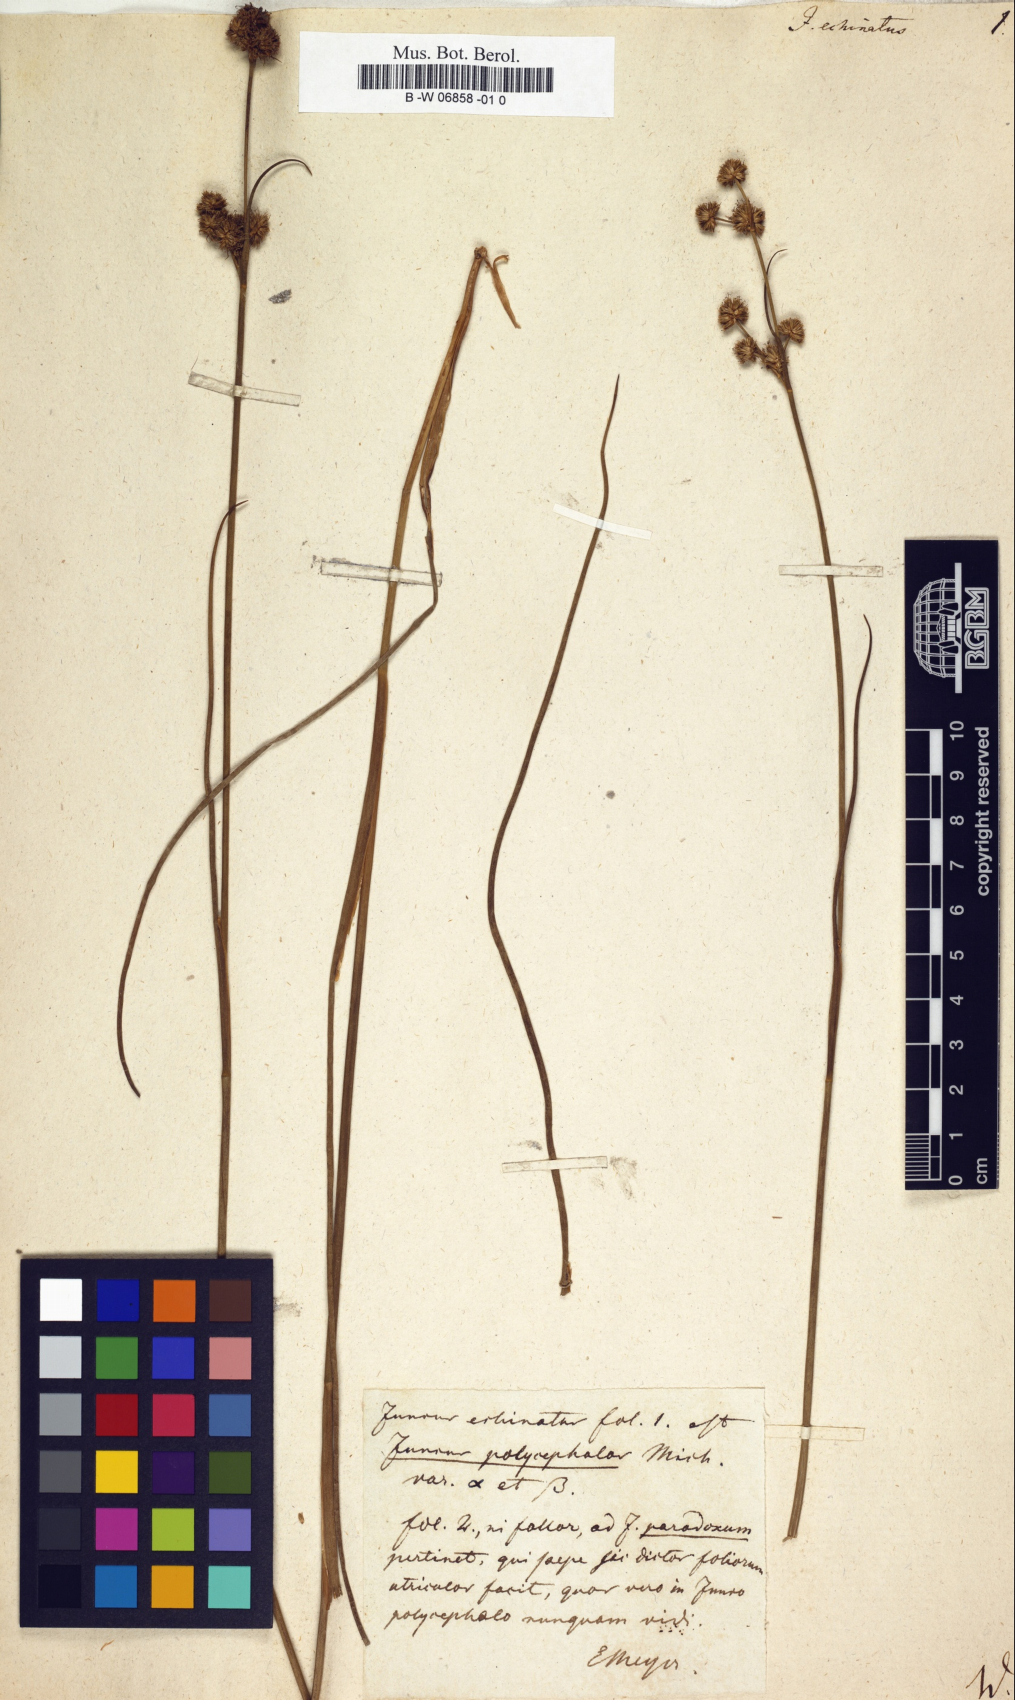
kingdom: Plantae
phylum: Tracheophyta
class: Liliopsida
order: Poales
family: Juncaceae
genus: Juncus
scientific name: Juncus
